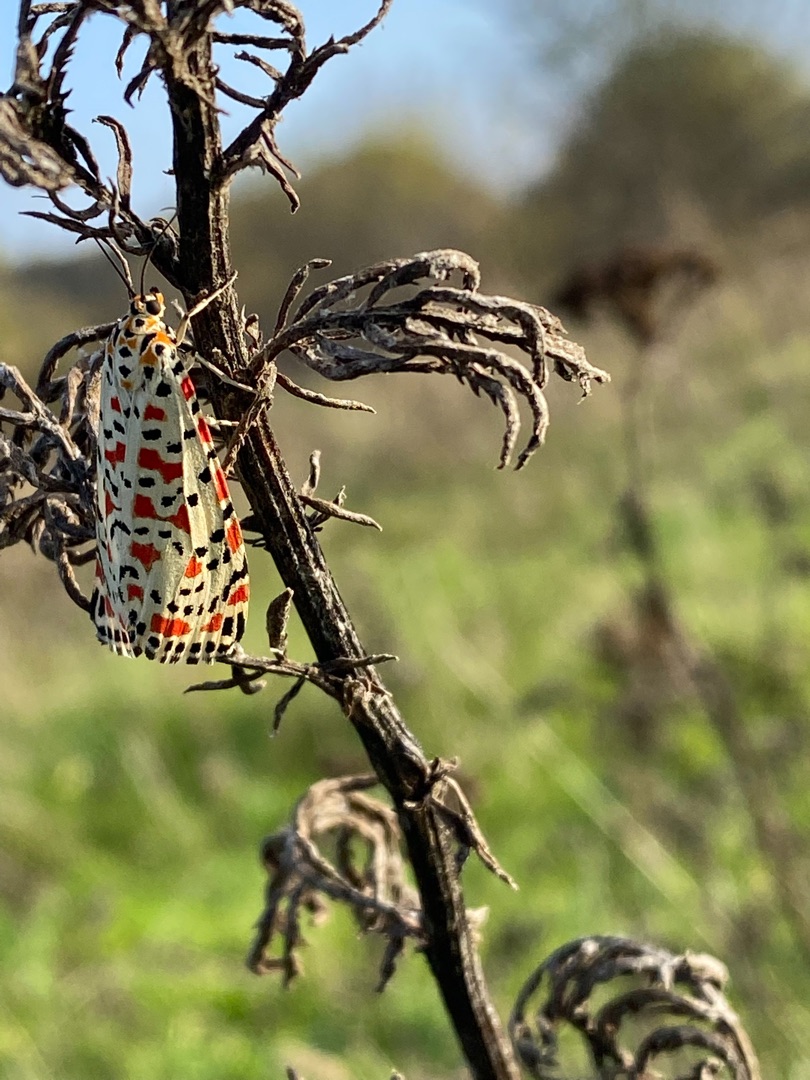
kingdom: Animalia
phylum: Arthropoda
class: Insecta
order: Lepidoptera
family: Erebidae
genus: Utetheisa
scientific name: Utetheisa pulchella
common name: Pragtbjørn
